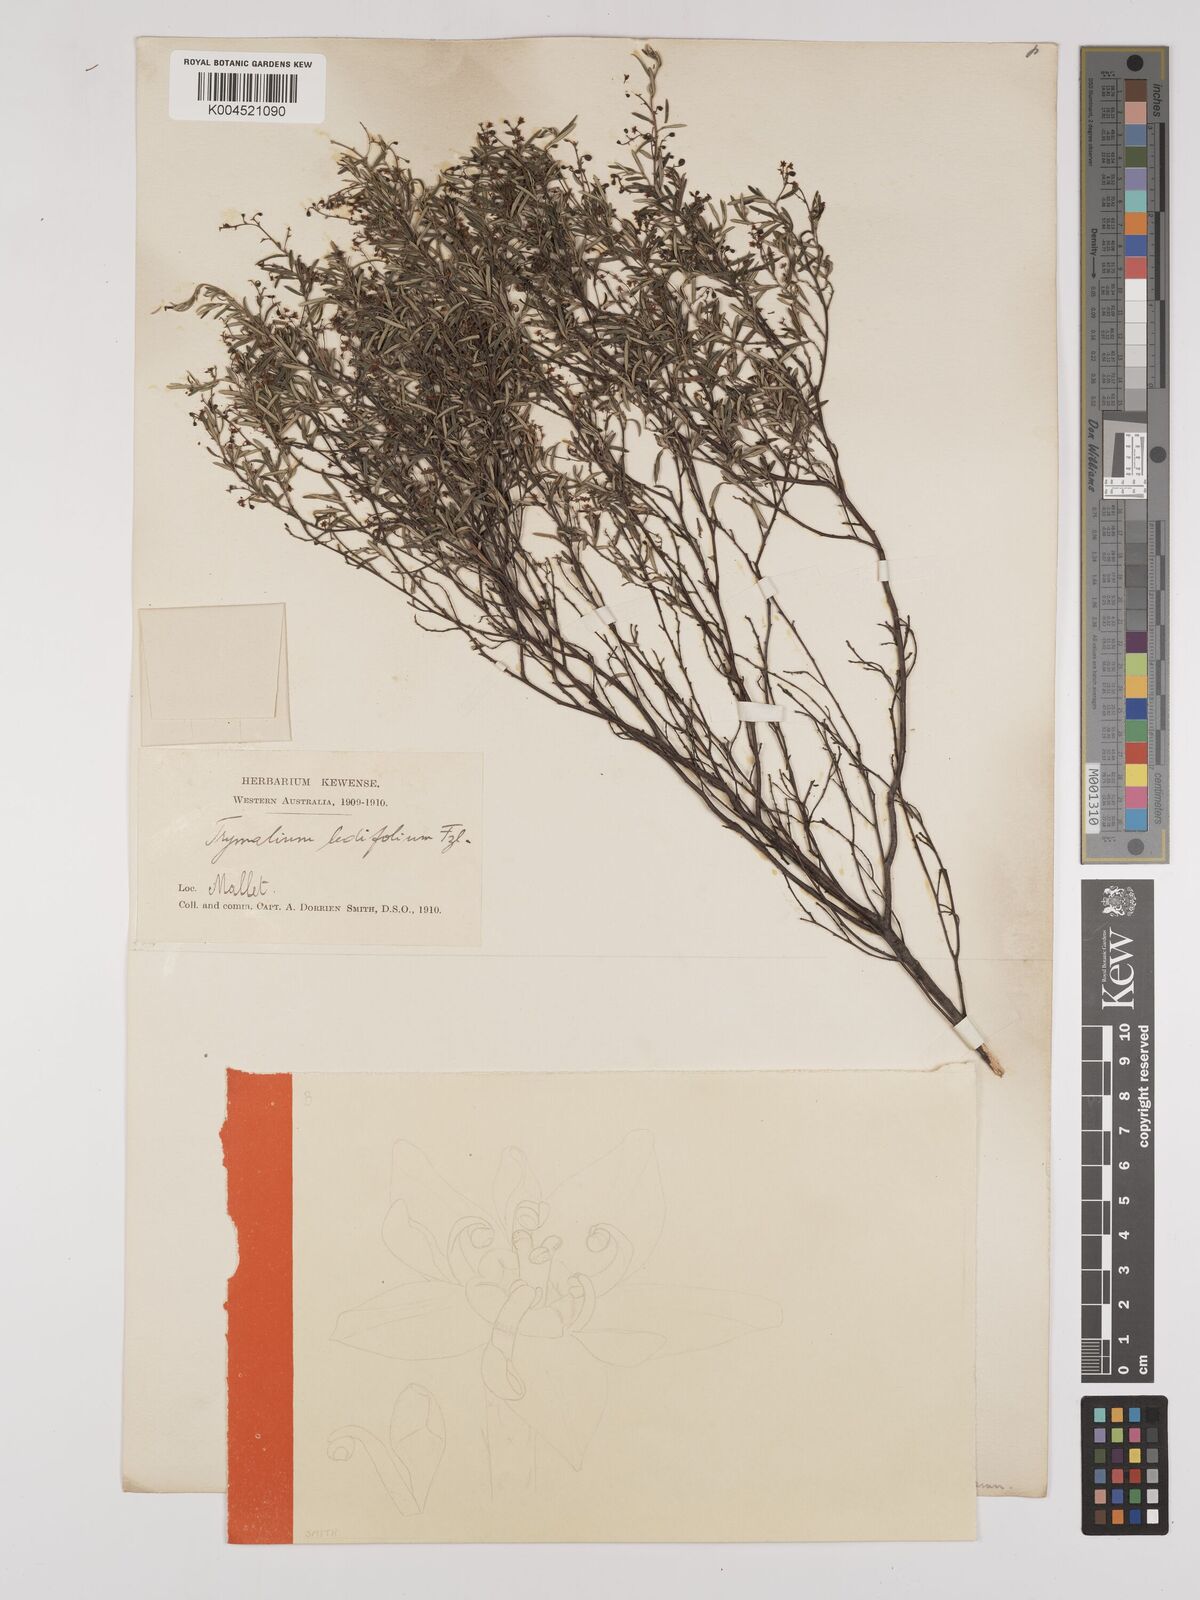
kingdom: Plantae
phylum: Tracheophyta
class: Magnoliopsida
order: Rosales
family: Rhamnaceae
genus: Trymalium
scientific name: Trymalium ledifolium
